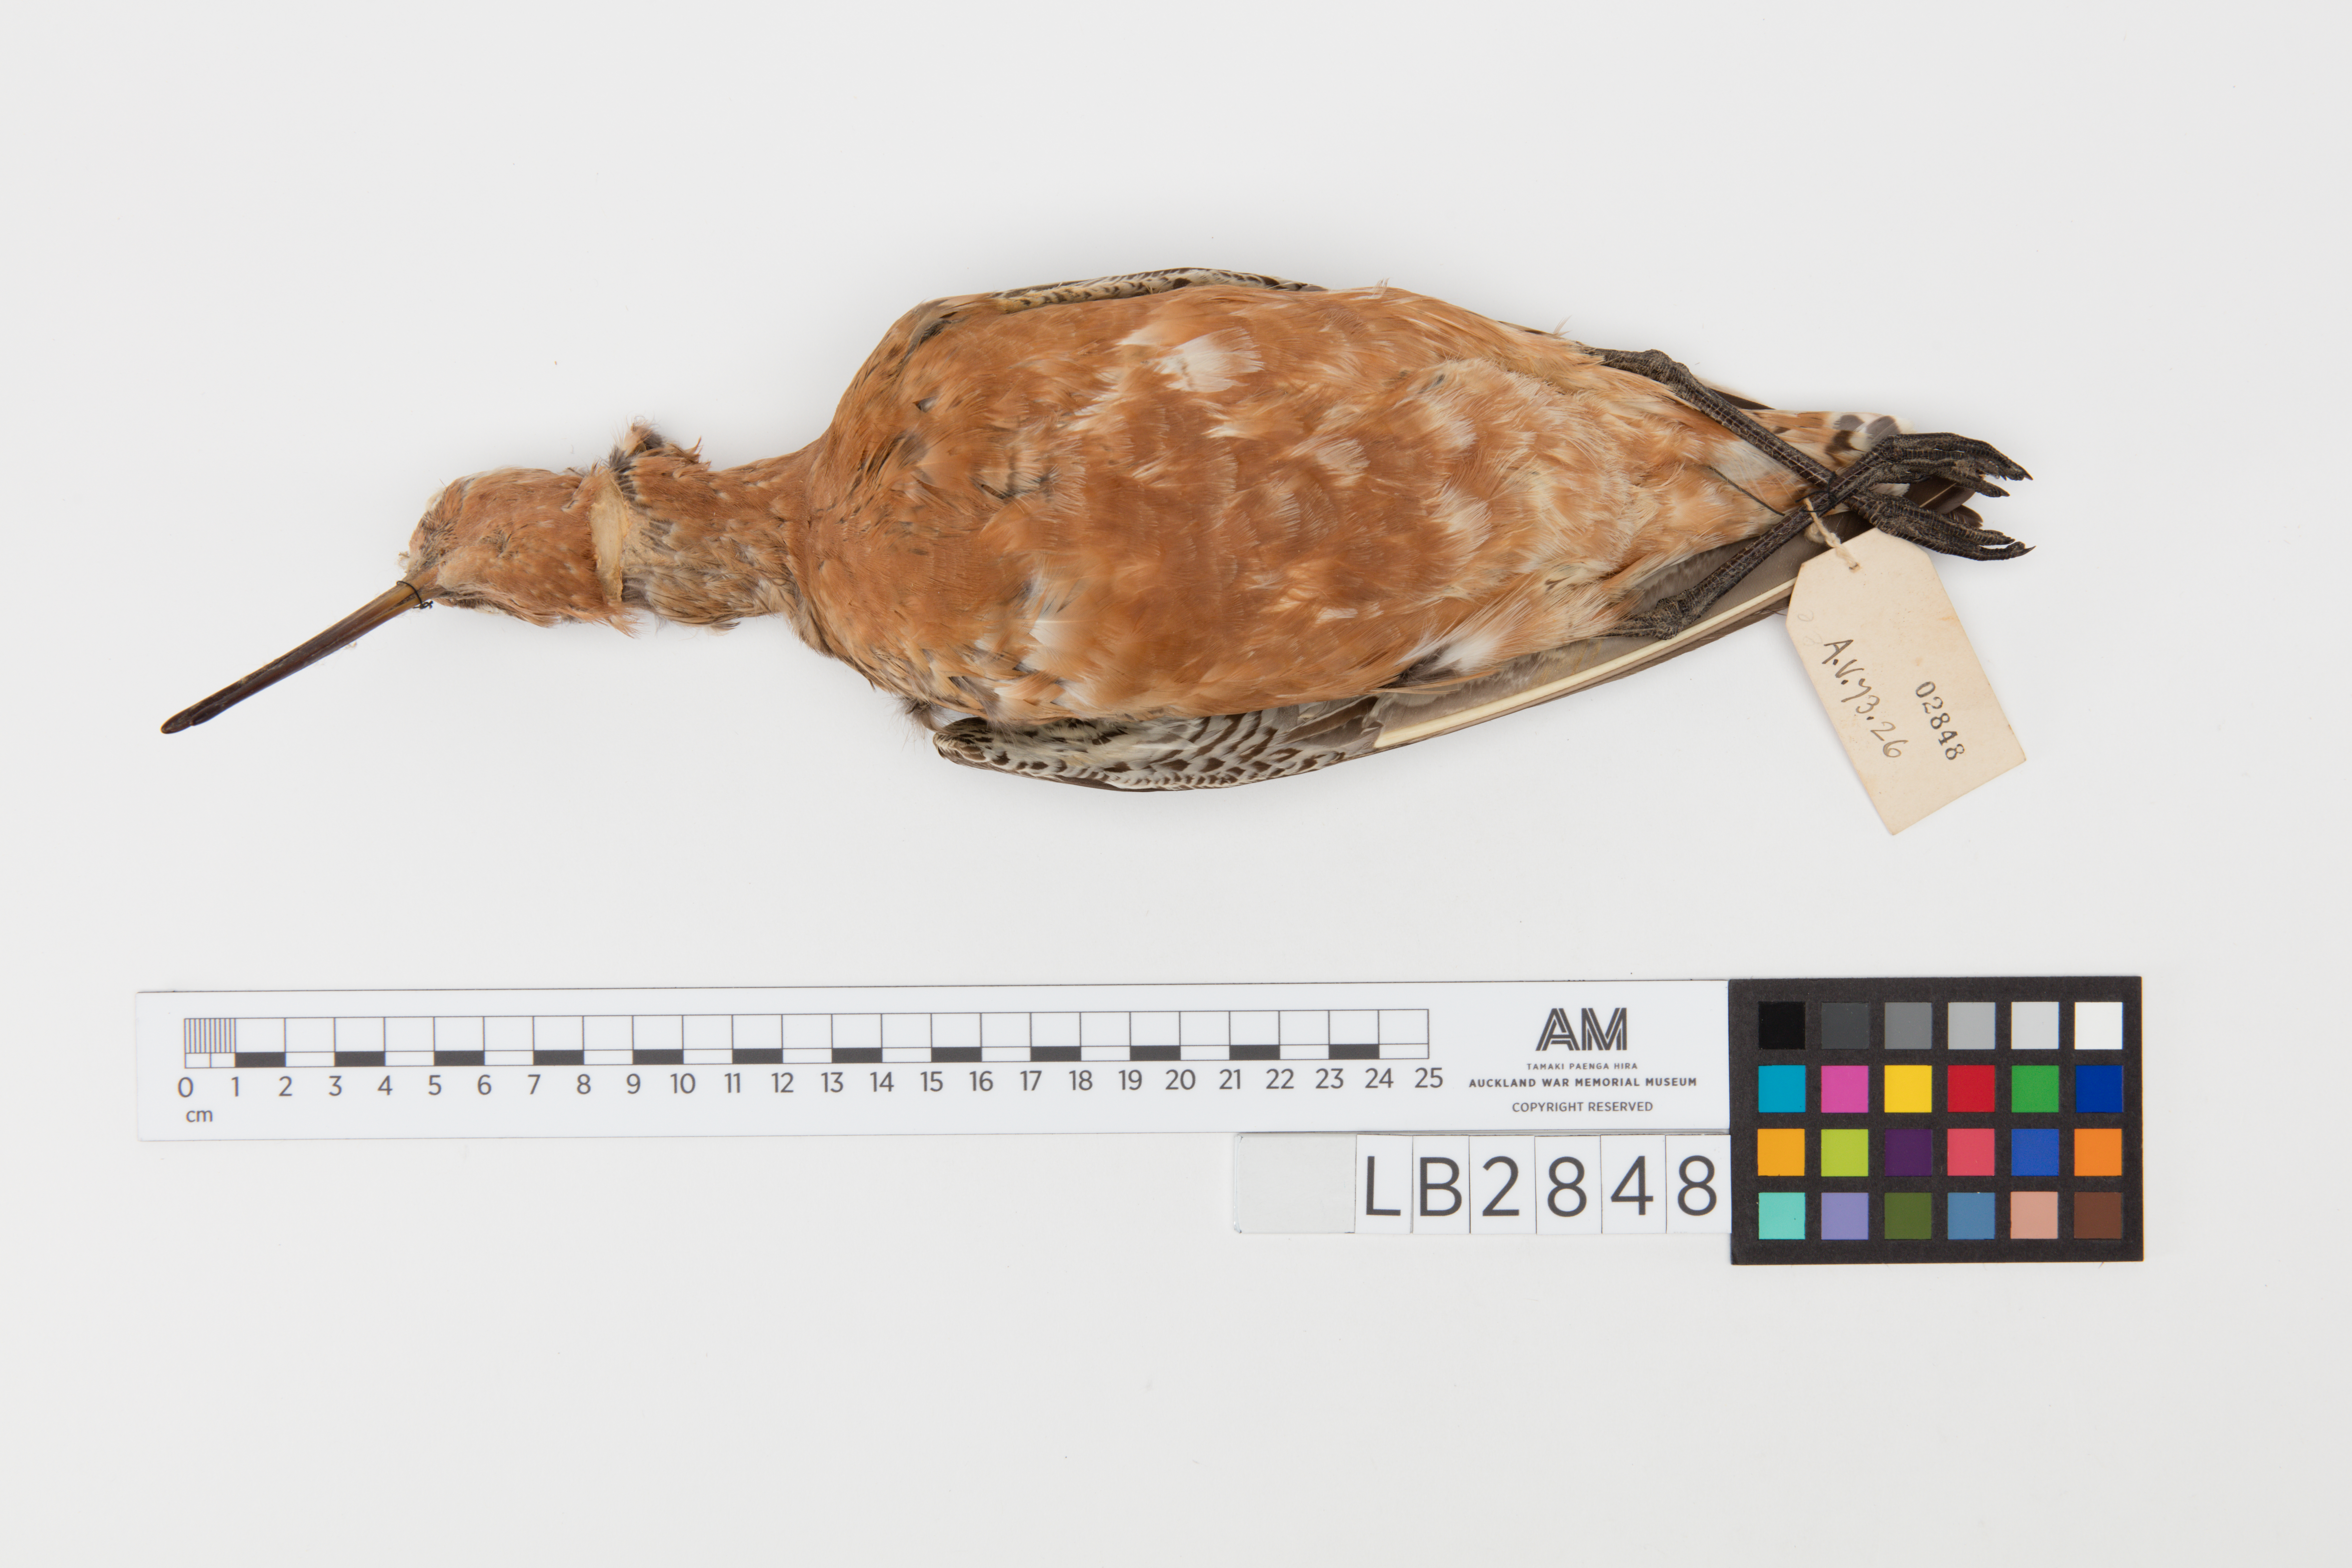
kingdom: Animalia
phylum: Chordata
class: Aves
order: Charadriiformes
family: Scolopacidae
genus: Limosa
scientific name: Limosa lapponica
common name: Bar-tailed godwit
